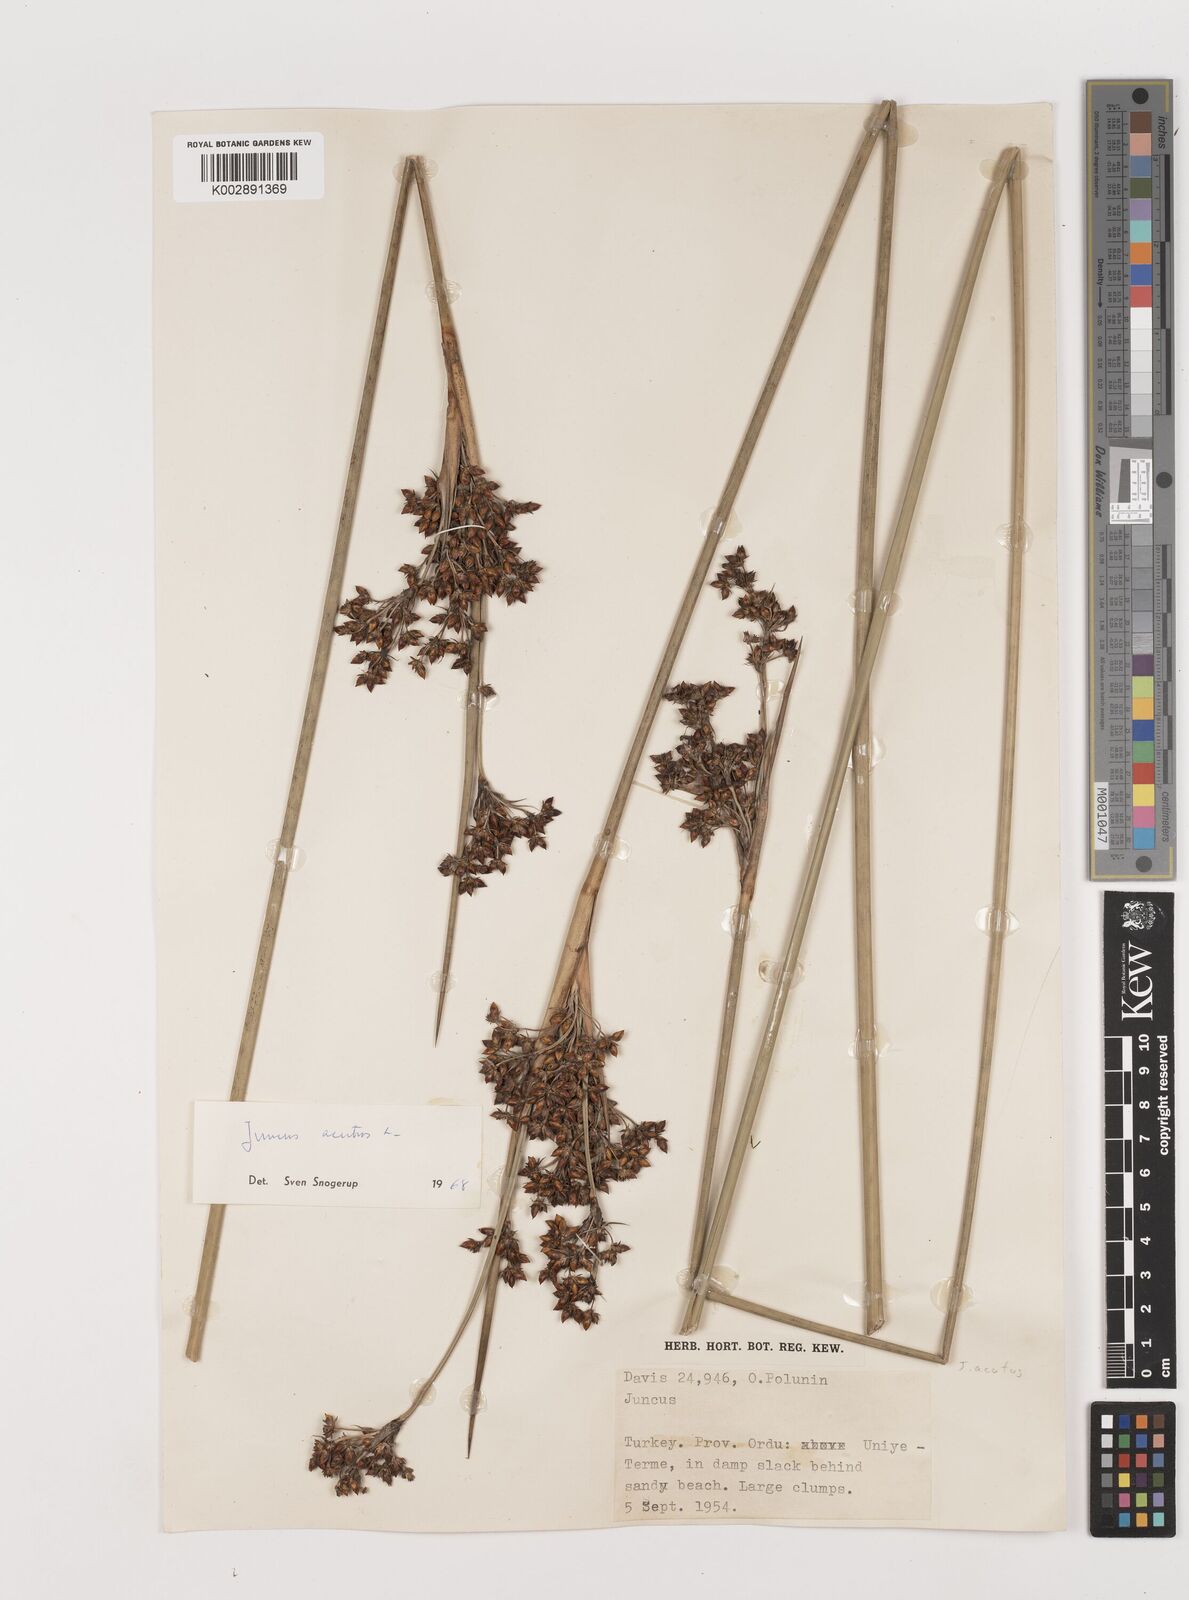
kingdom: Plantae
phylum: Tracheophyta
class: Liliopsida
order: Poales
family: Juncaceae
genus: Juncus
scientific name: Juncus acutus
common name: Sharp rush
